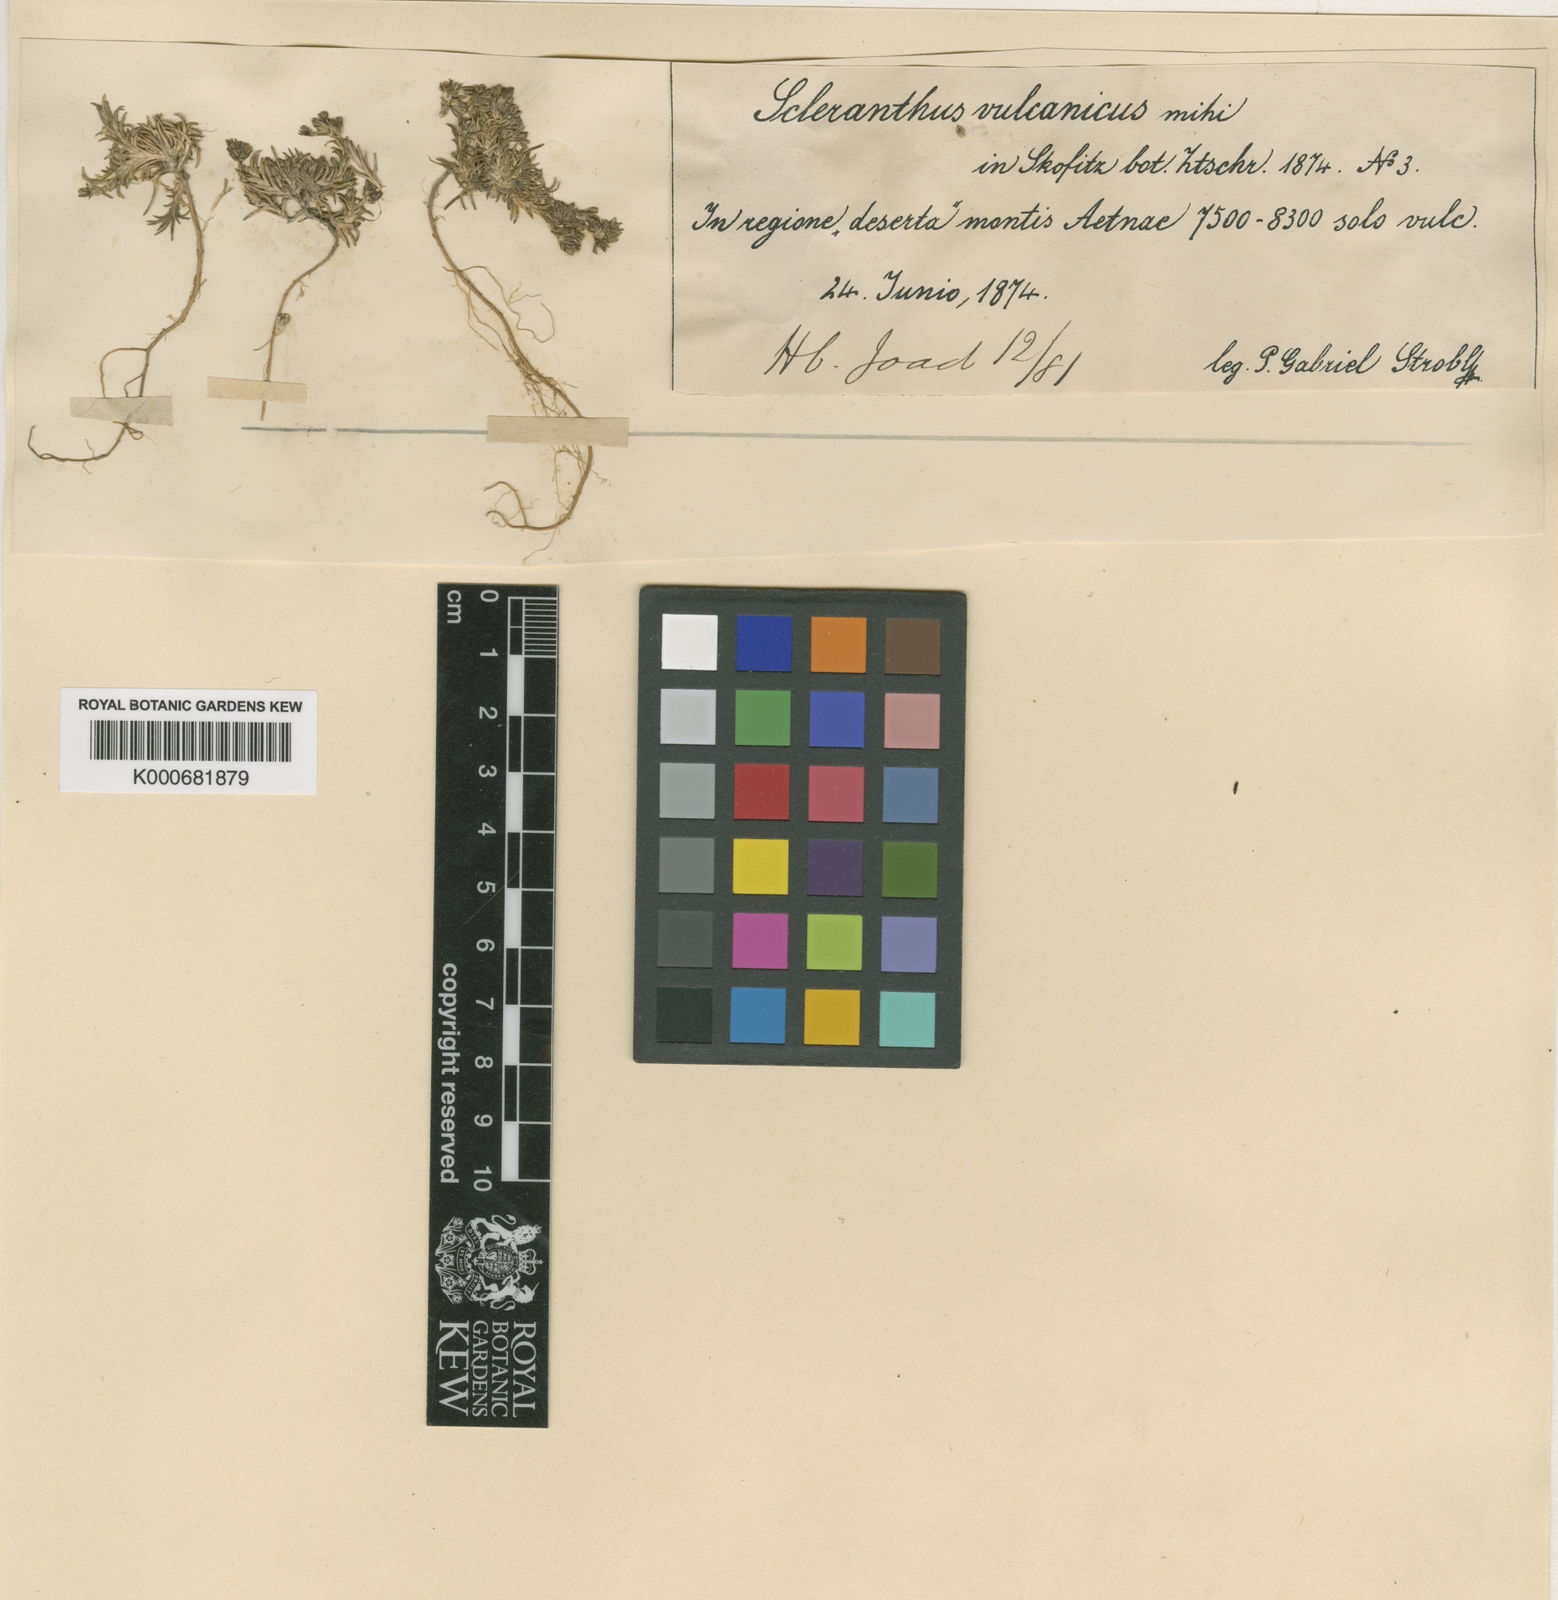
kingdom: Plantae
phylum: Tracheophyta
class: Magnoliopsida
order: Caryophyllales
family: Caryophyllaceae
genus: Scleranthus
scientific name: Scleranthus perennis
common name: Perennial knawel
